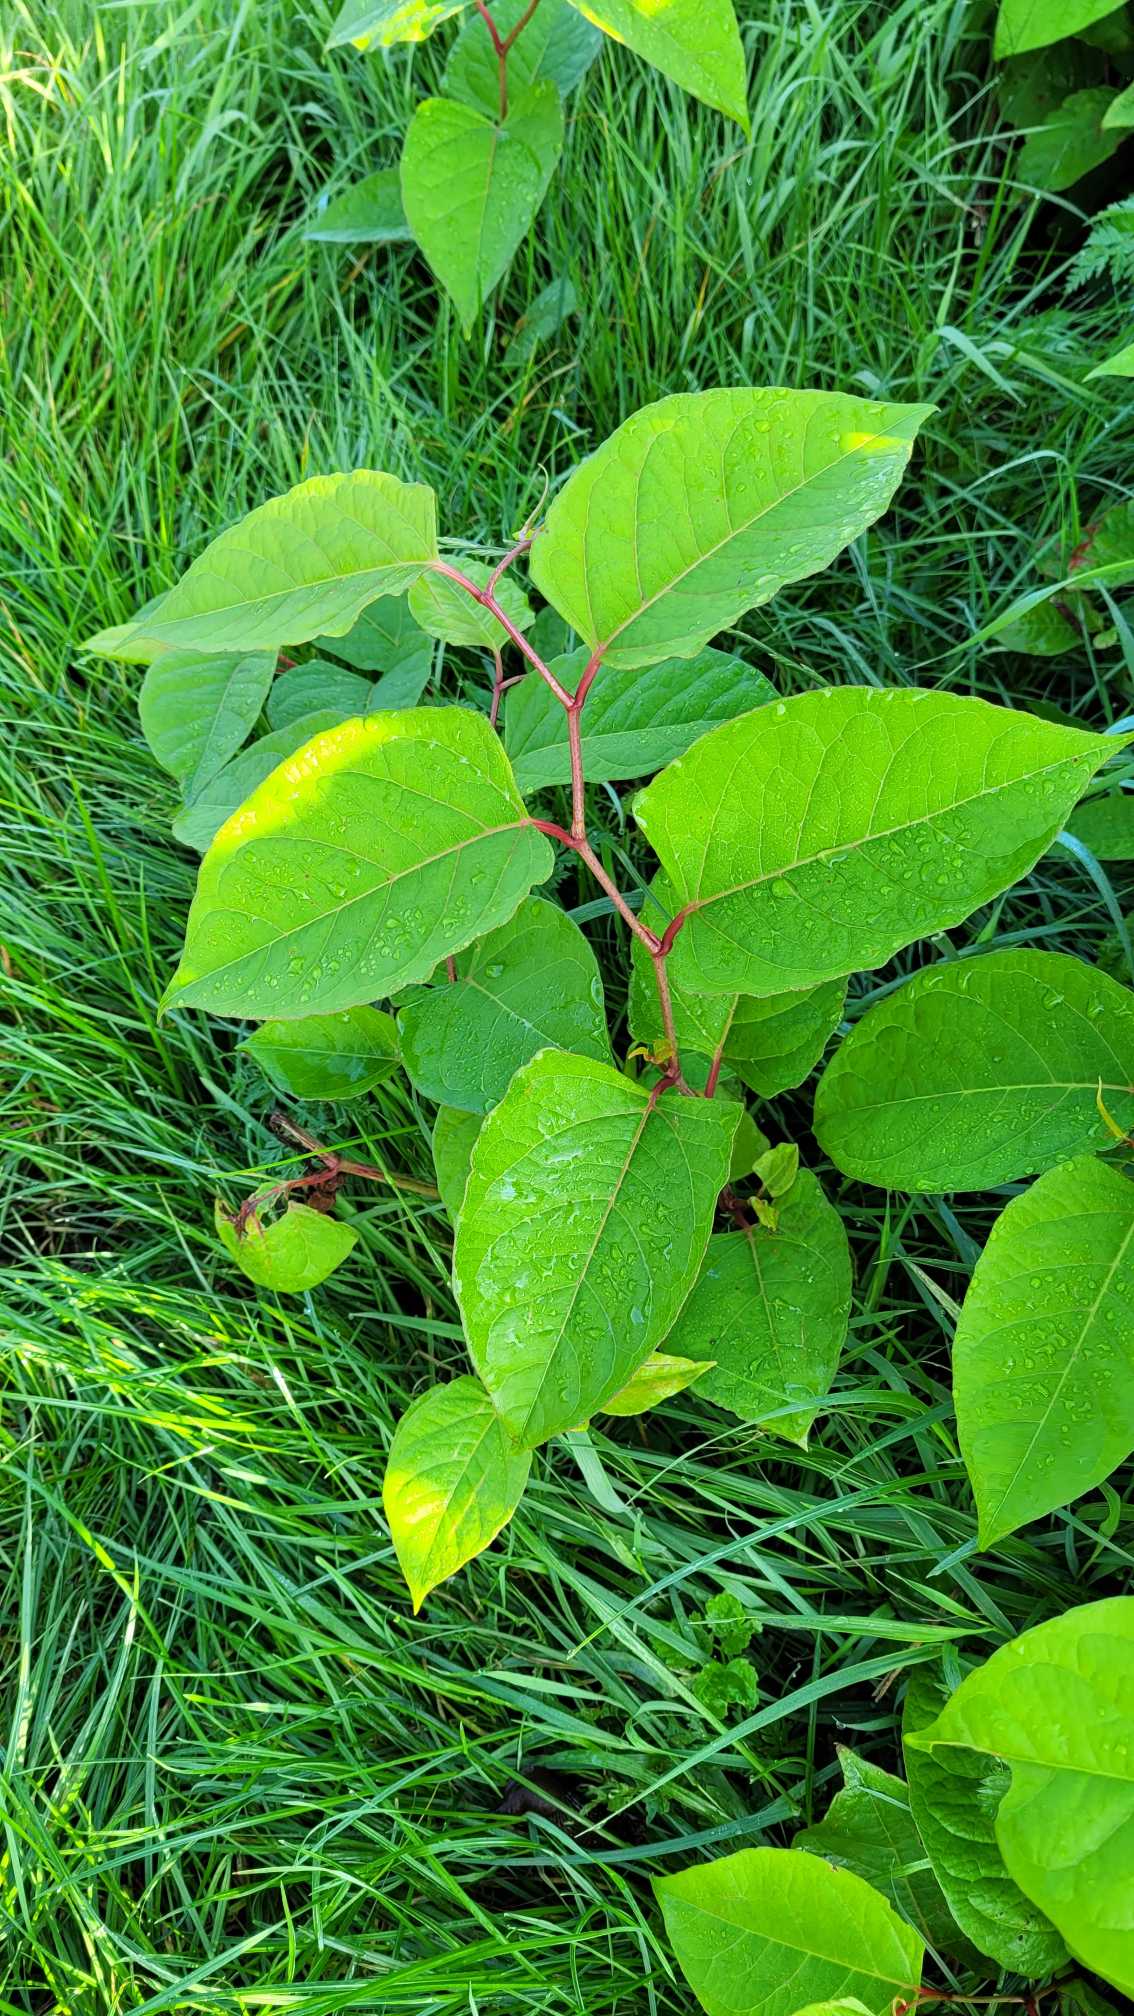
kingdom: Plantae
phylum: Tracheophyta
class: Magnoliopsida
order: Caryophyllales
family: Polygonaceae
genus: Reynoutria
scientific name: Reynoutria japonica
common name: Japan-pileurt
